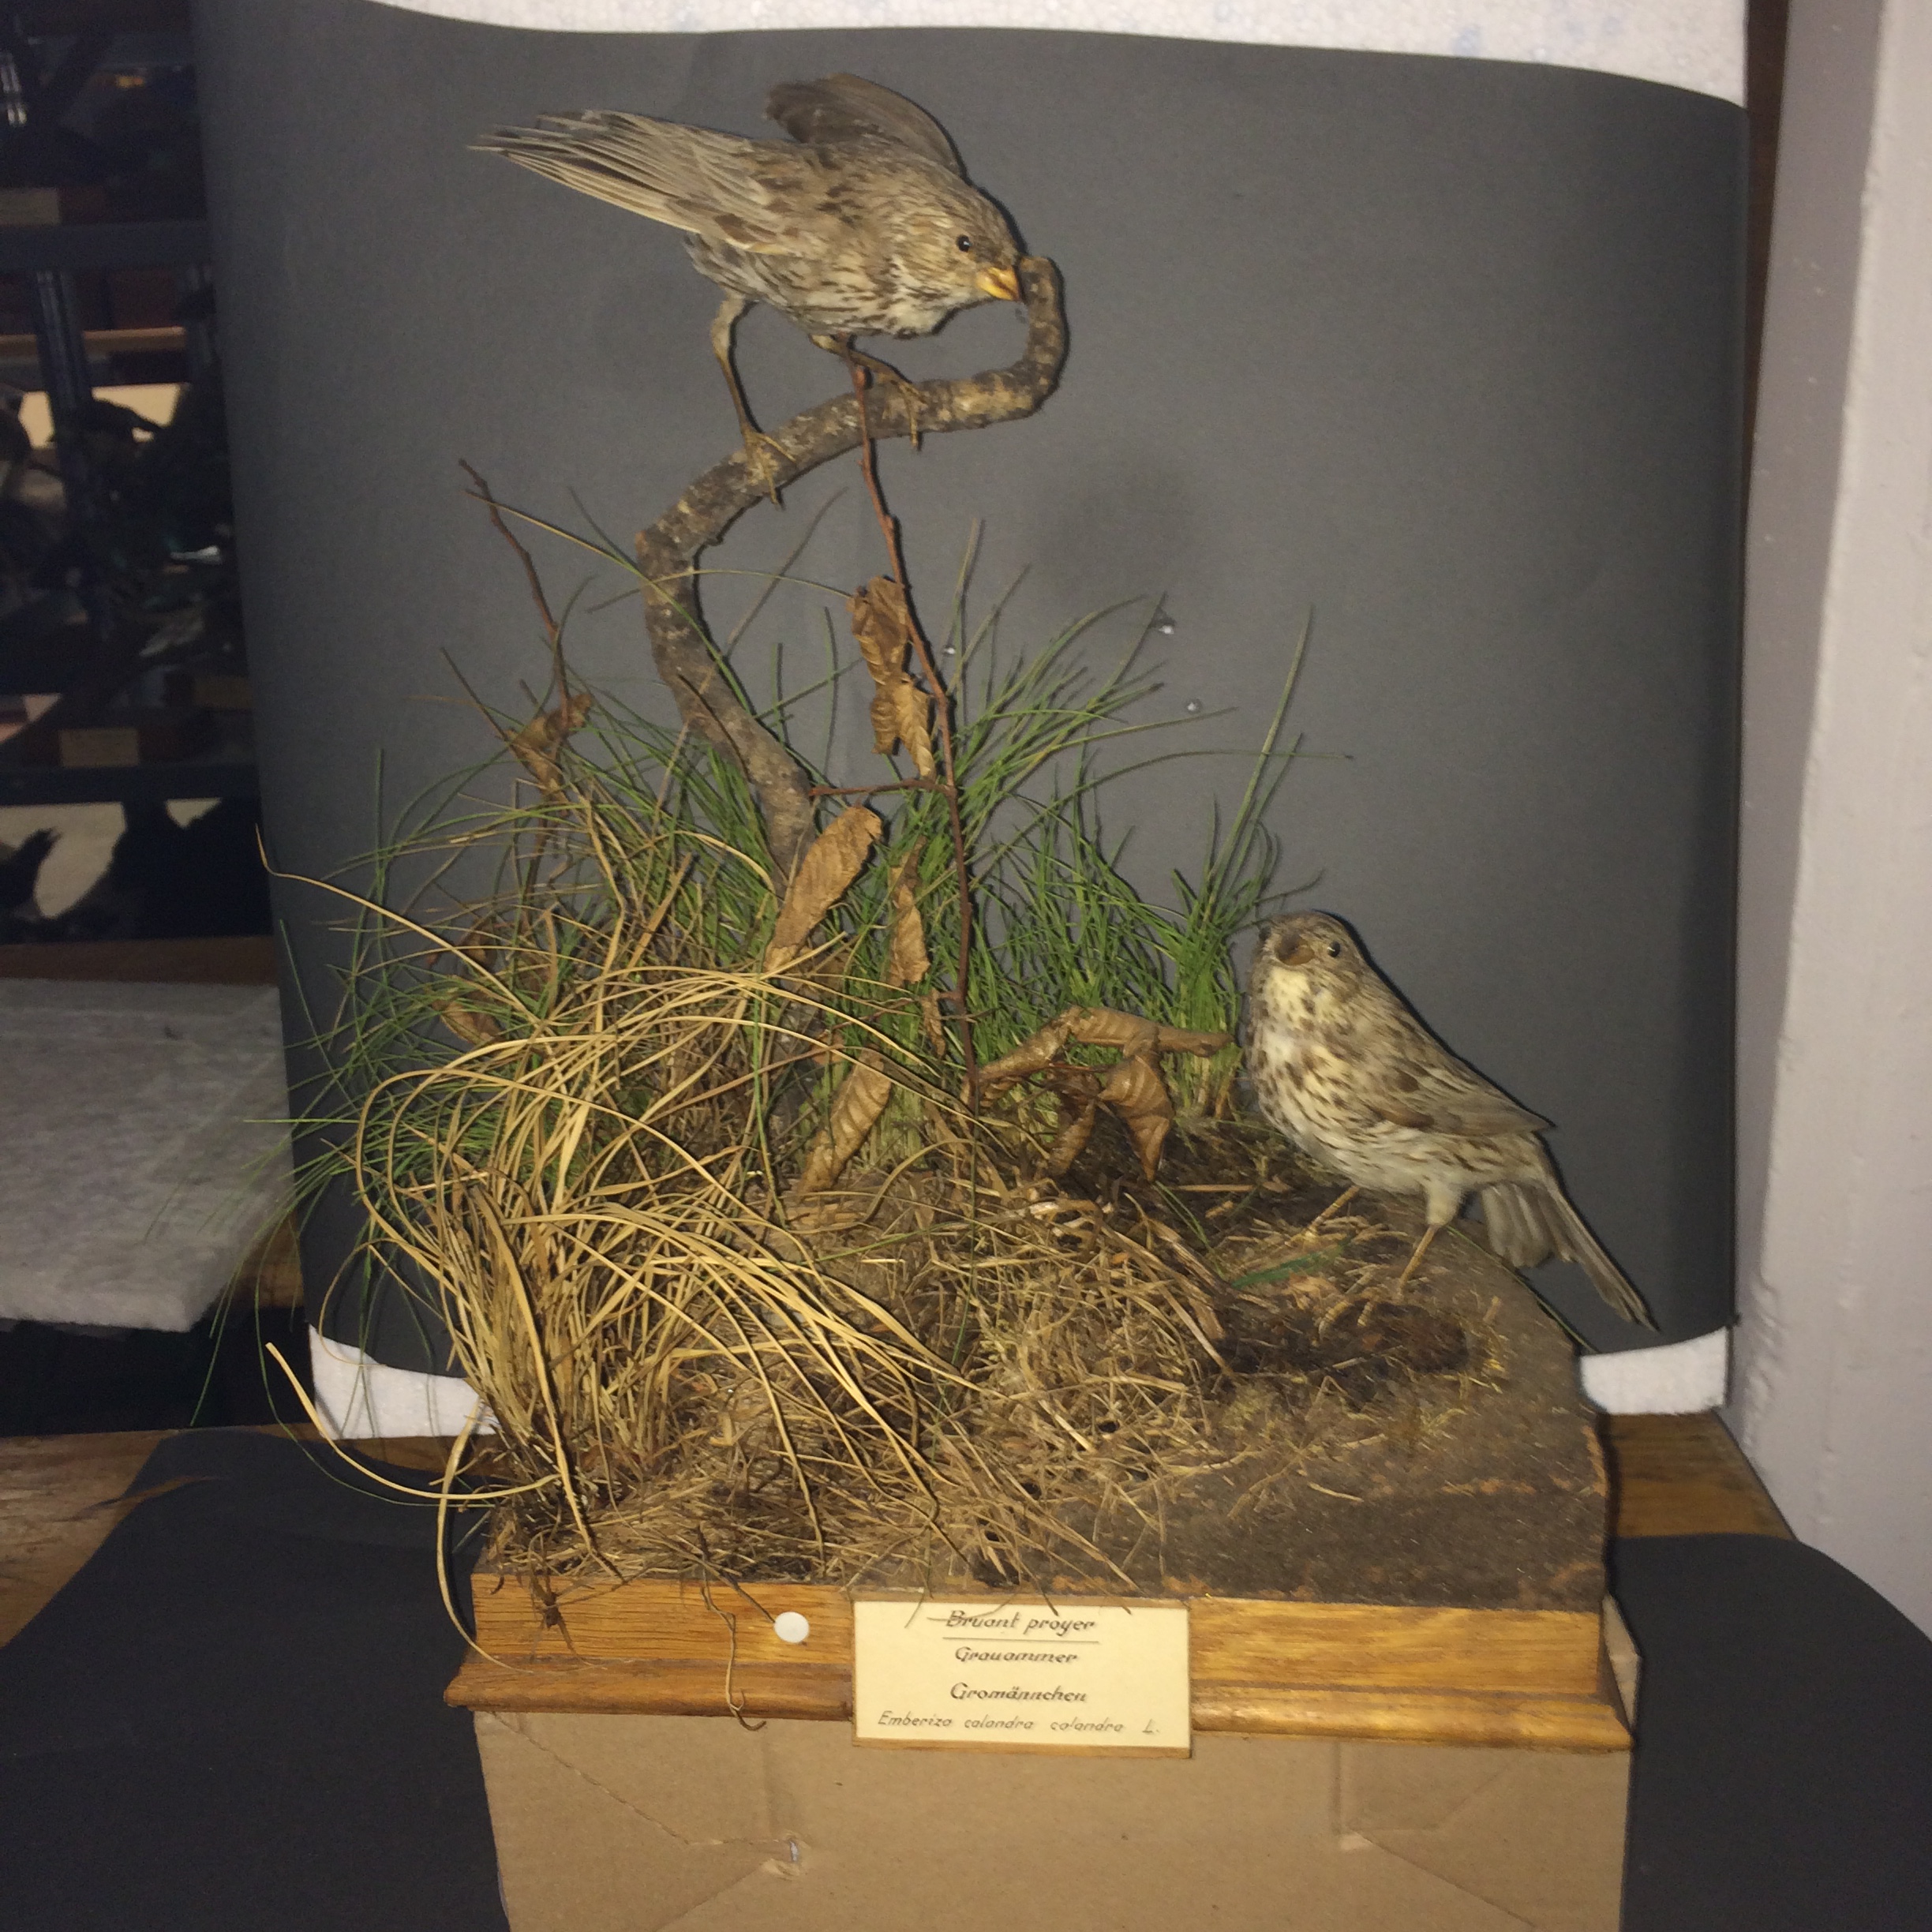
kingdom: Animalia
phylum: Chordata
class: Aves
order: Passeriformes
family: Emberizidae
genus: Emberiza
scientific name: Emberiza calandra
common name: Corn bunting
